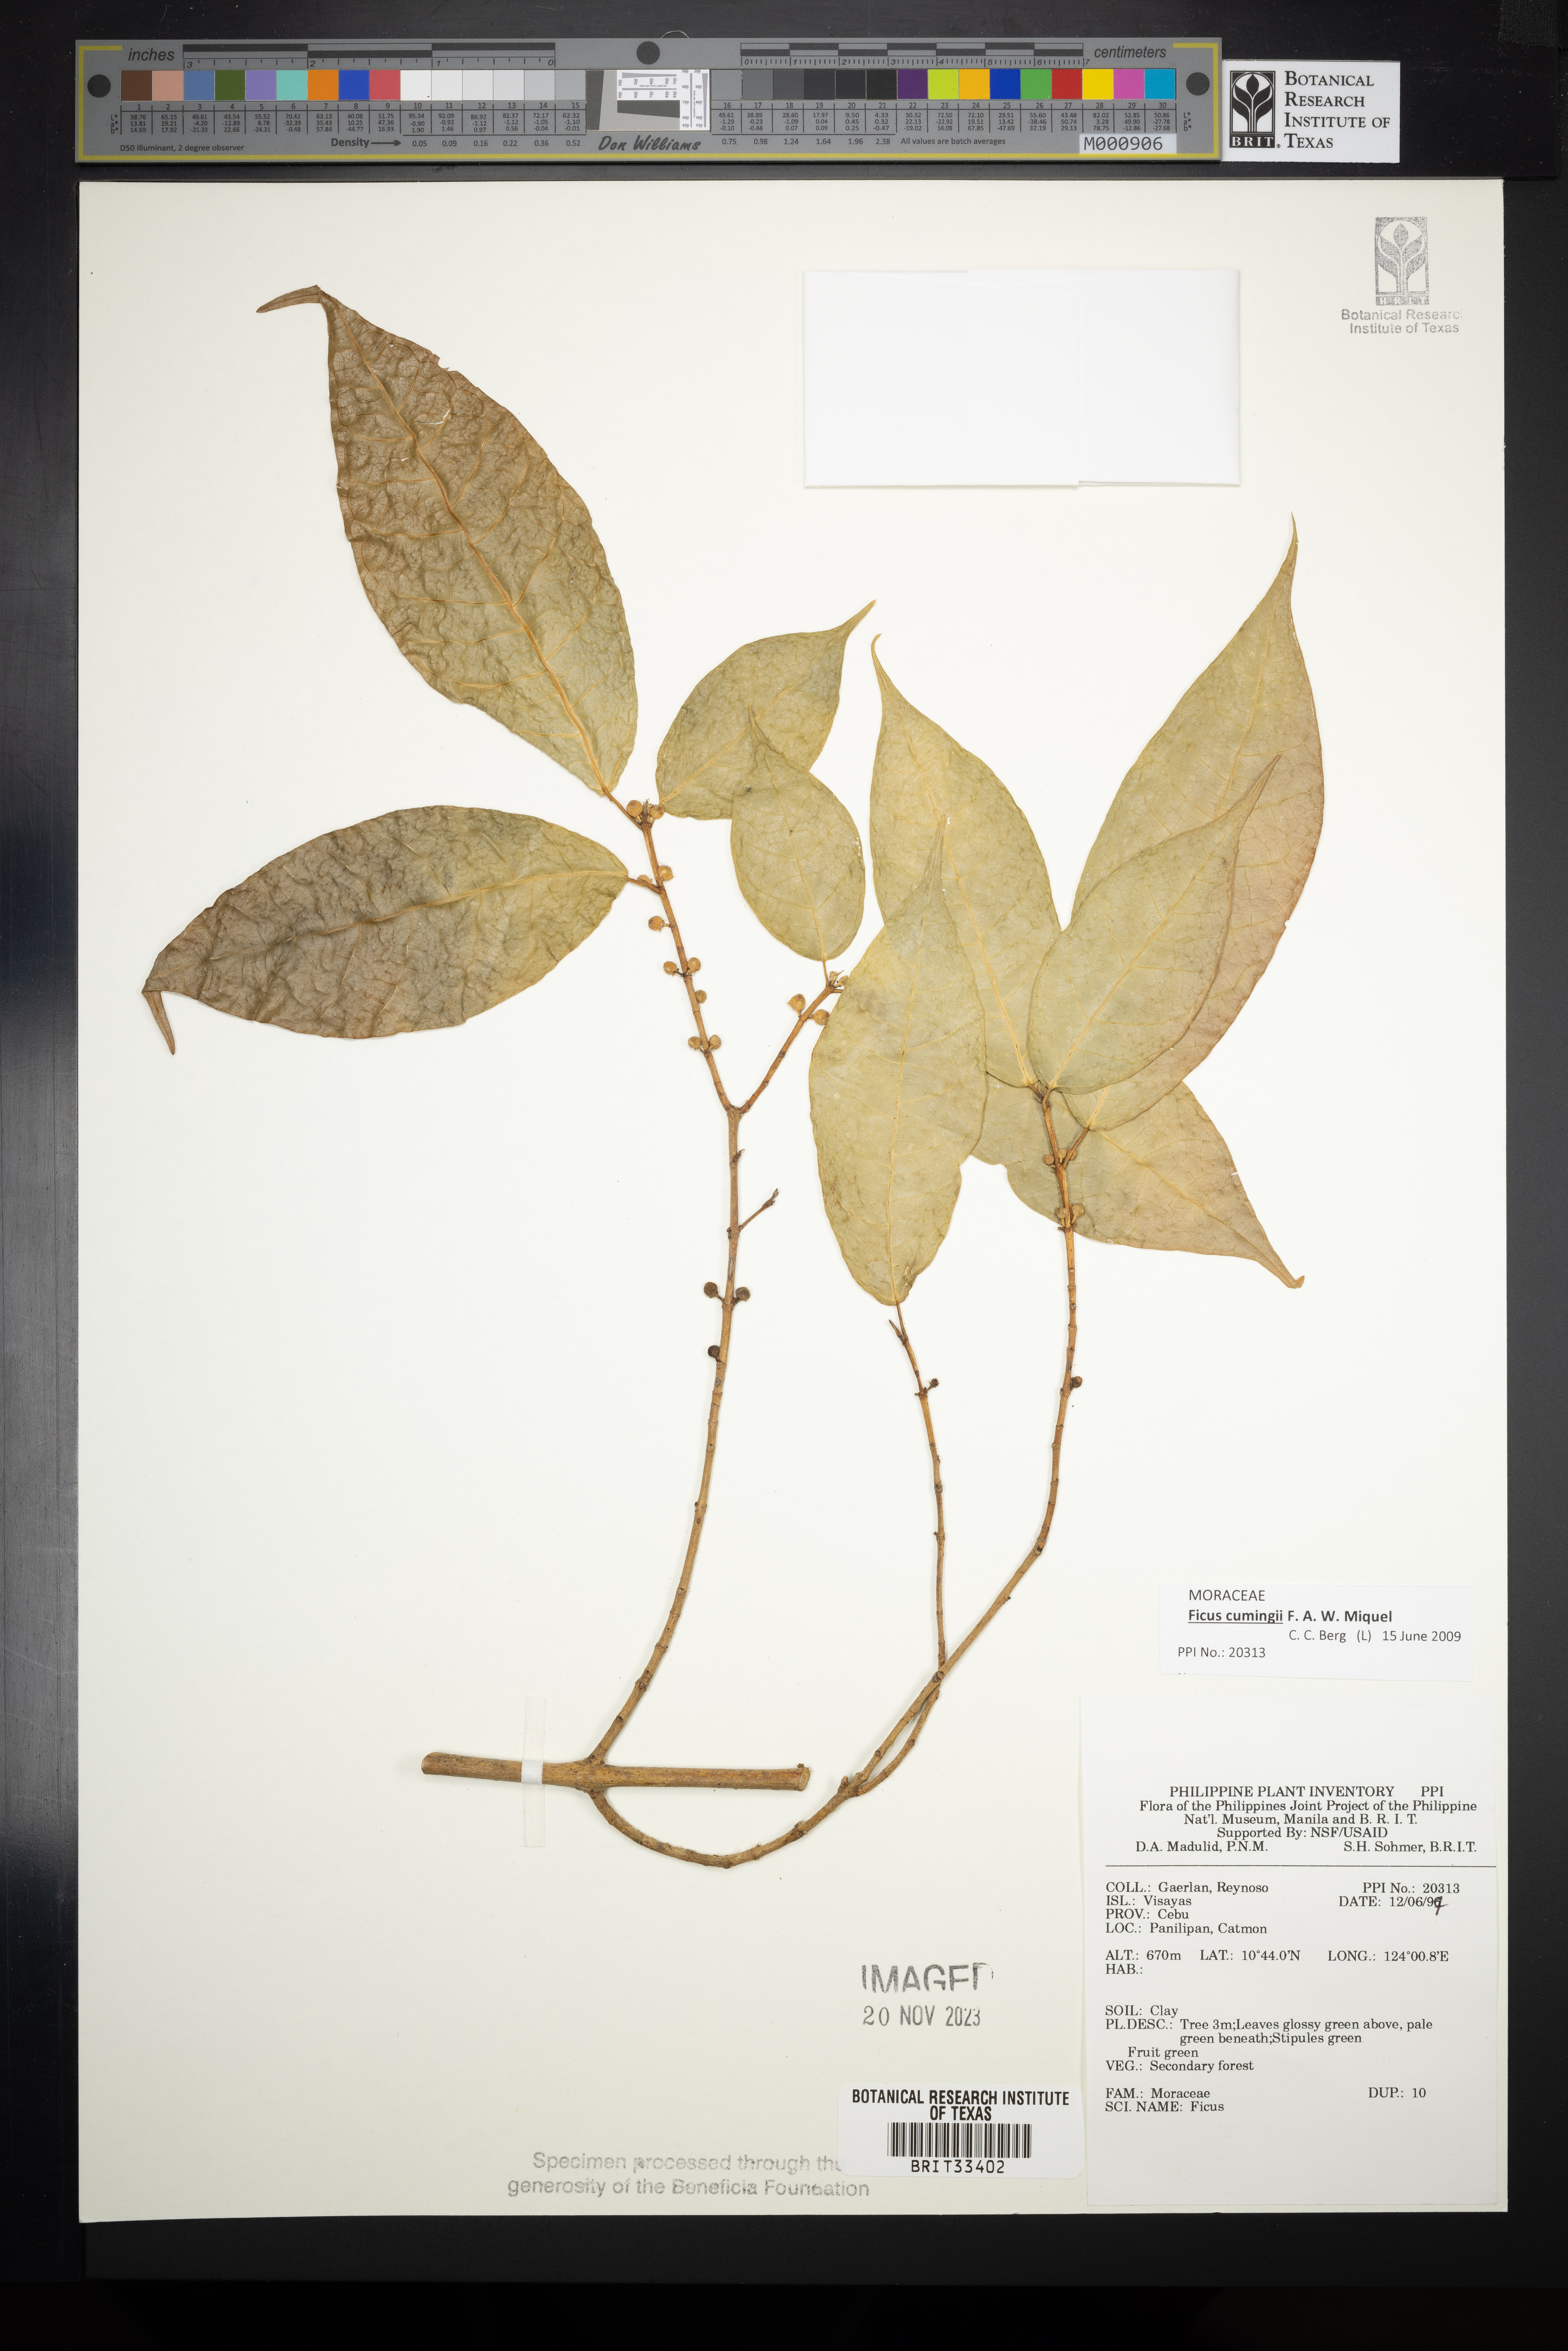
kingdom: Plantae
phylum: Tracheophyta
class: Magnoliopsida
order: Rosales
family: Moraceae
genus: Ficus
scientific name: Ficus
